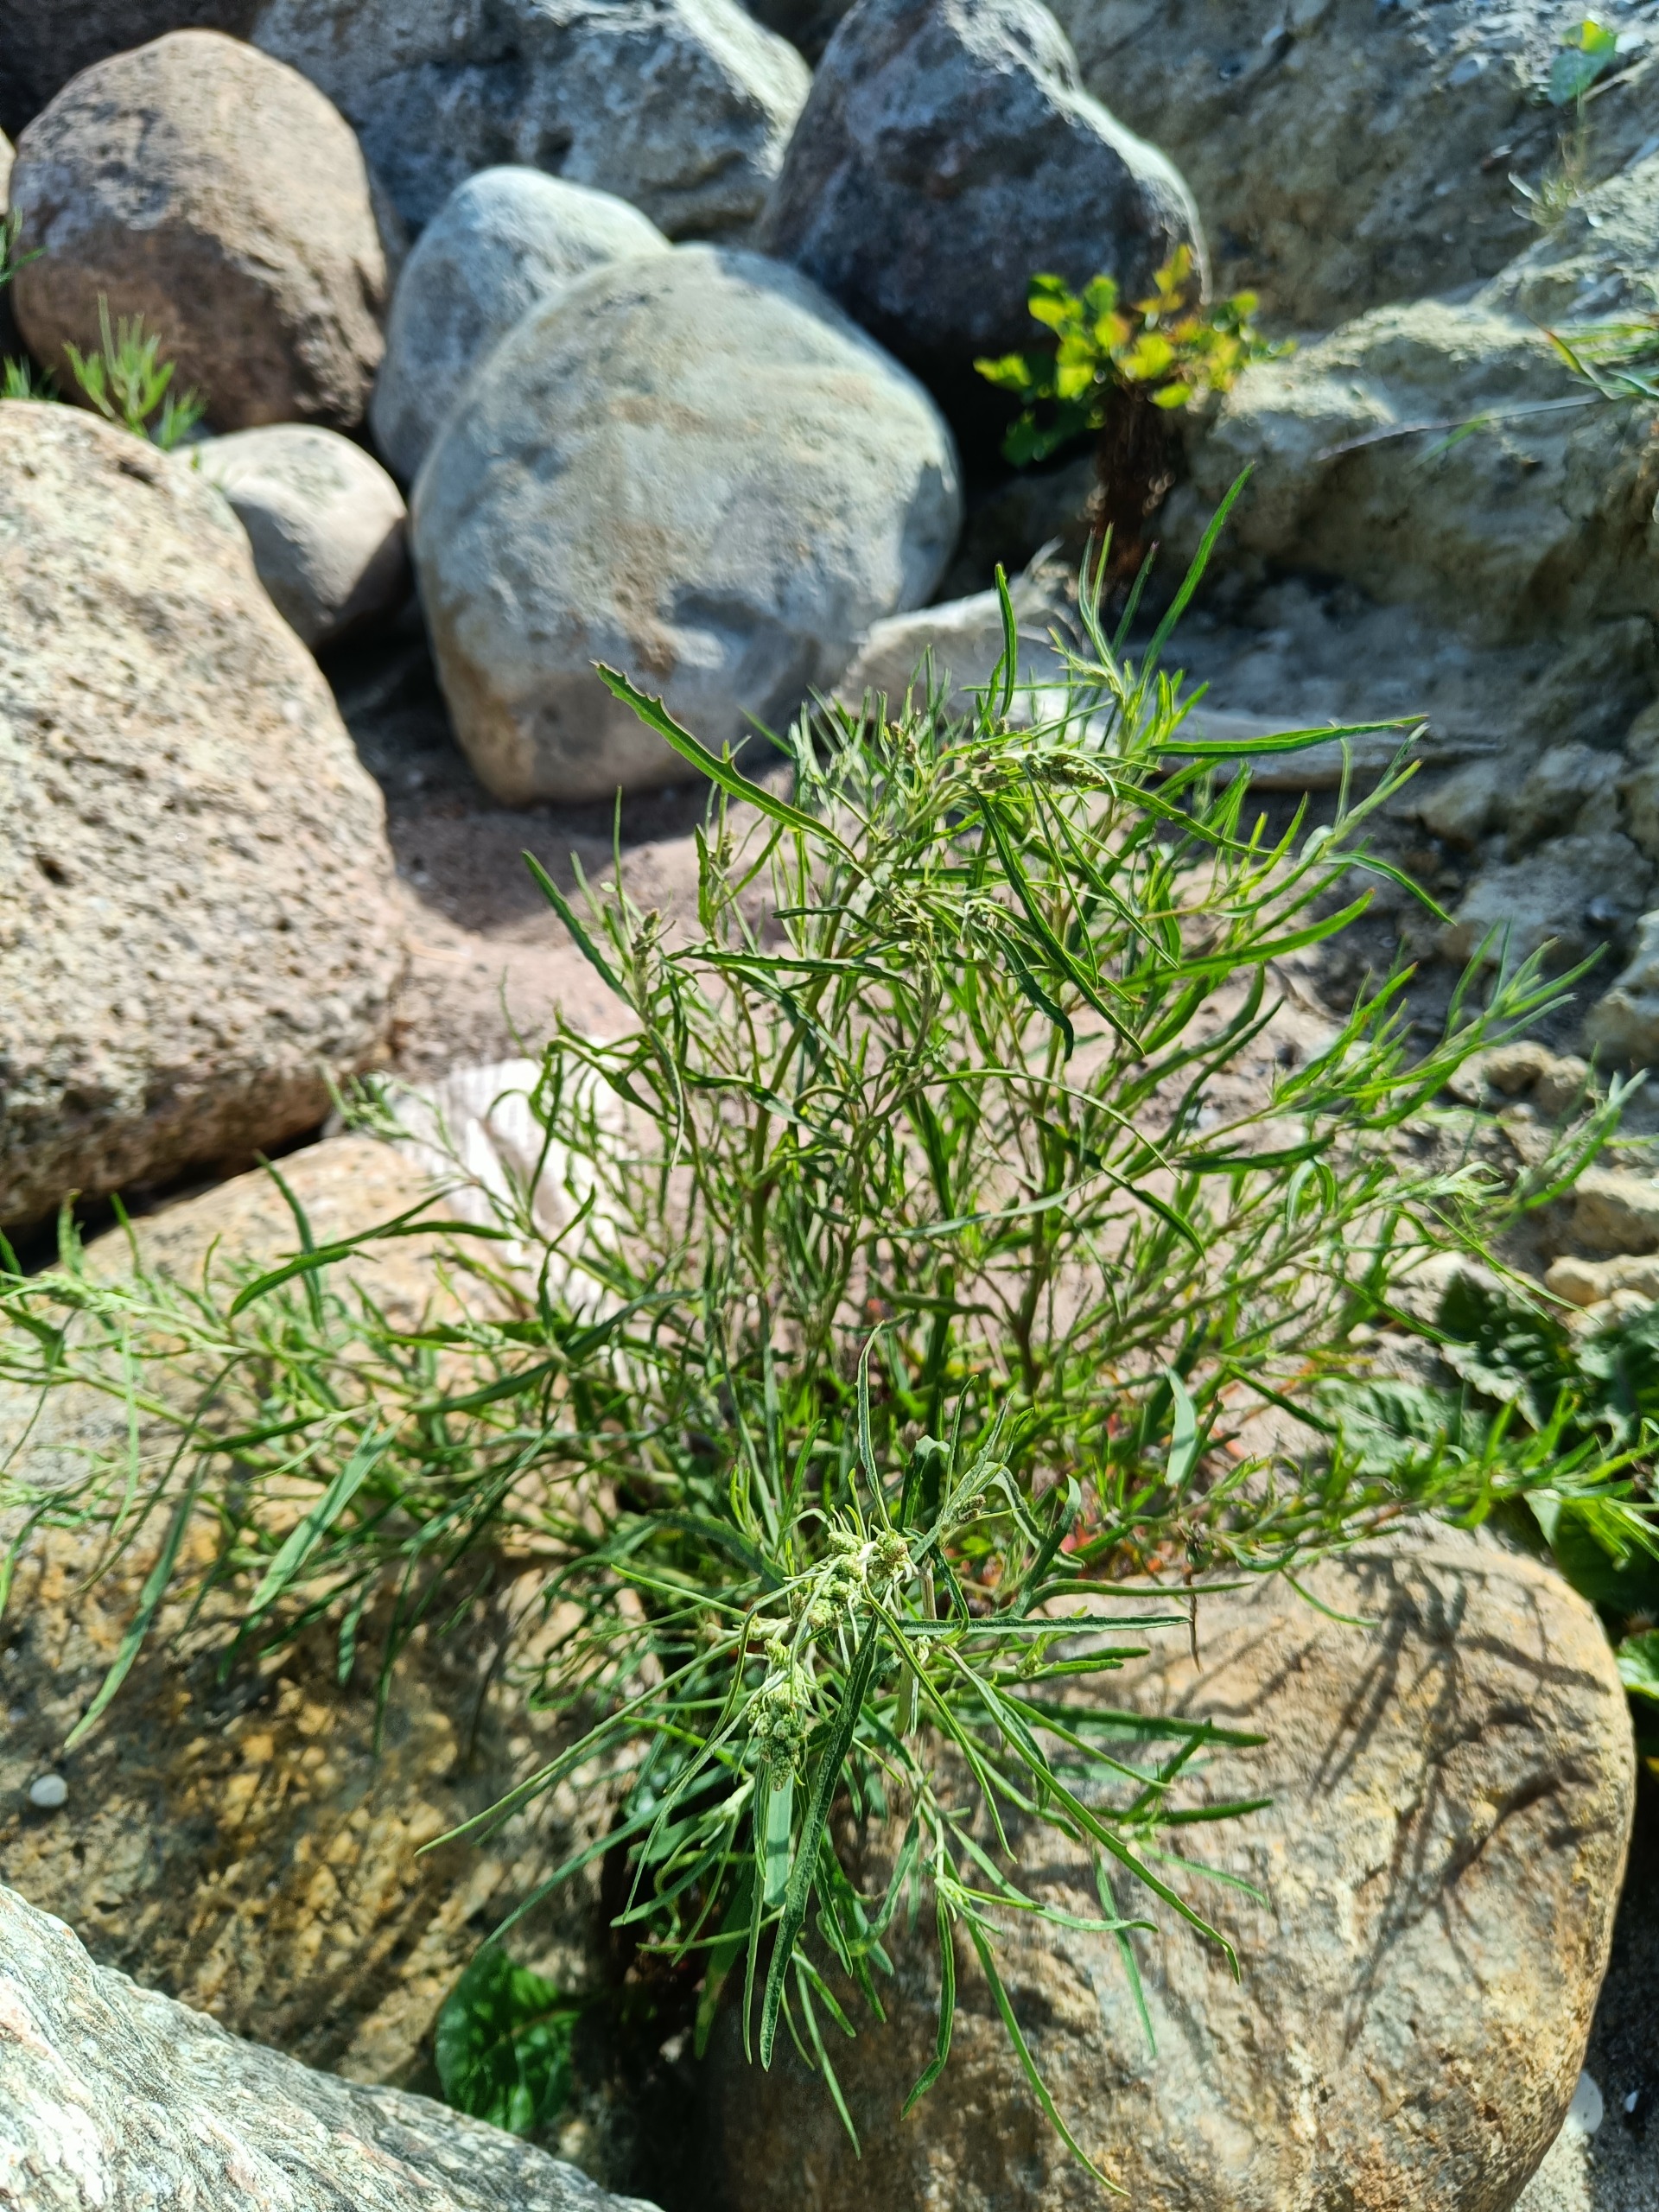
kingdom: Plantae
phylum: Tracheophyta
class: Magnoliopsida
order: Caryophyllales
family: Amaranthaceae
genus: Atriplex
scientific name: Atriplex littoralis
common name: Strand-mælde
